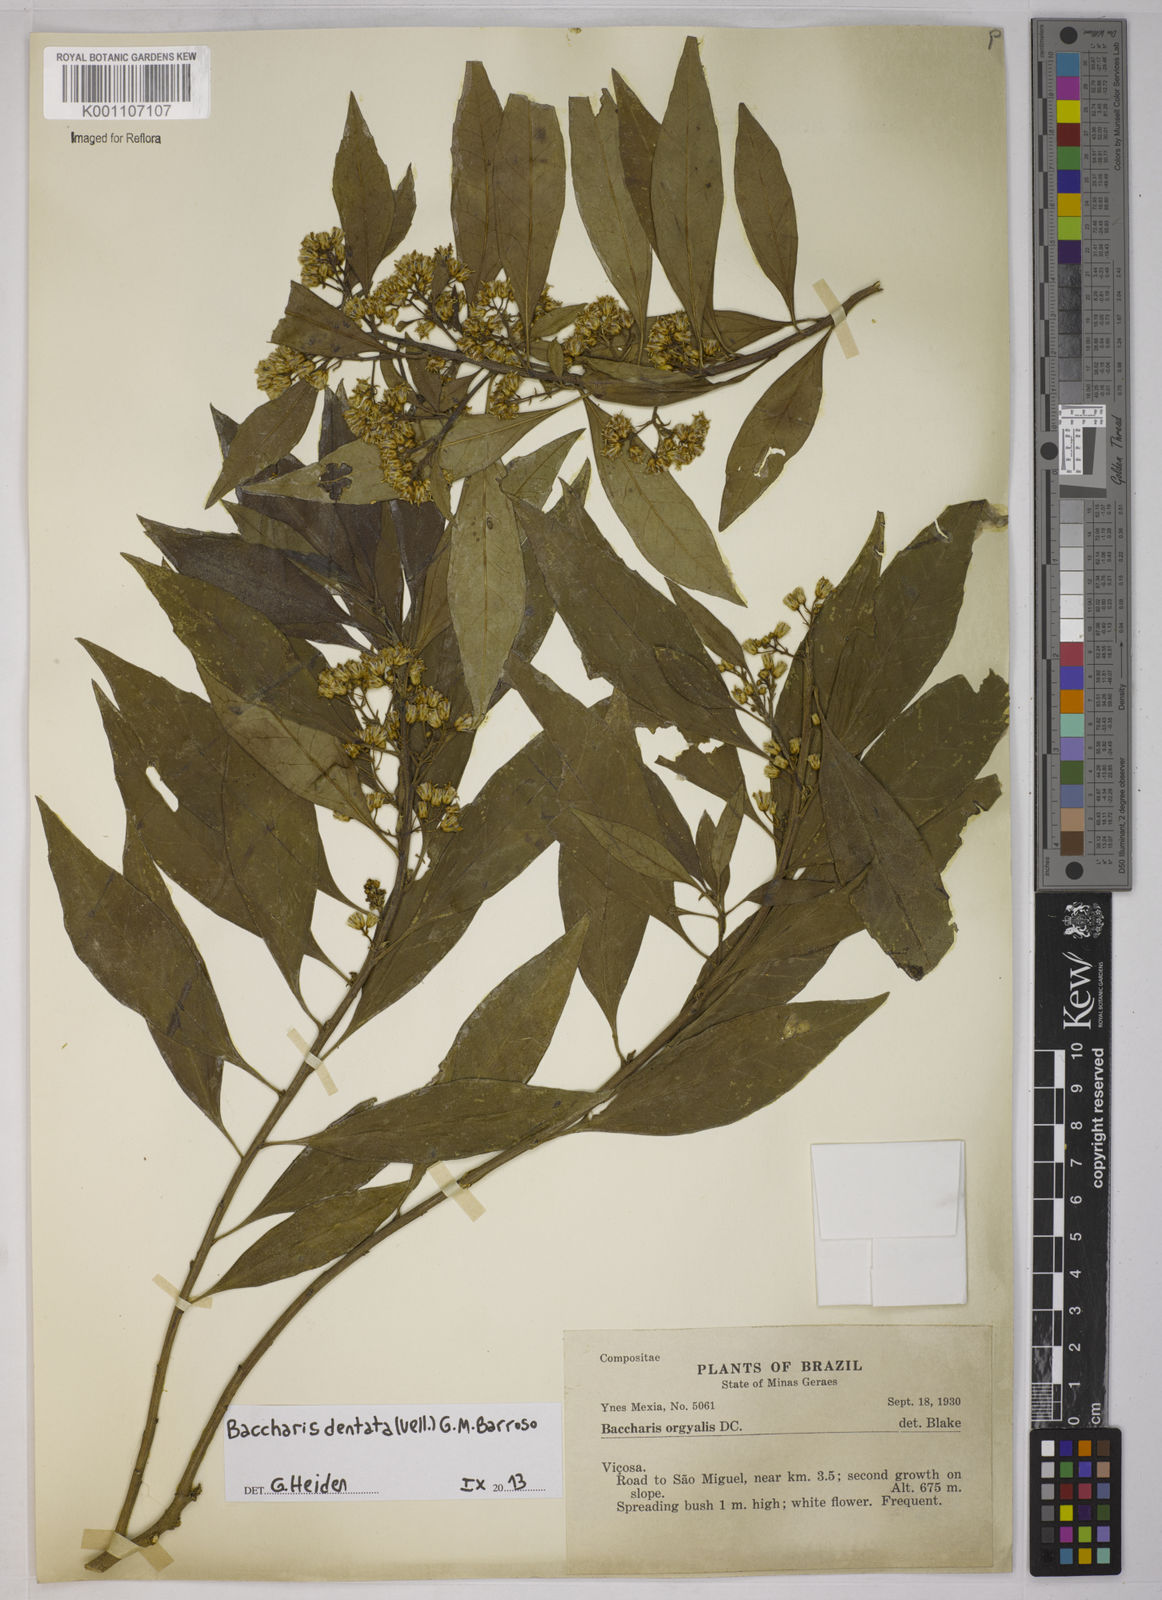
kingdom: Plantae
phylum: Tracheophyta
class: Magnoliopsida
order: Asterales
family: Asteraceae
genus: Baccharis
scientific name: Baccharis dentata
